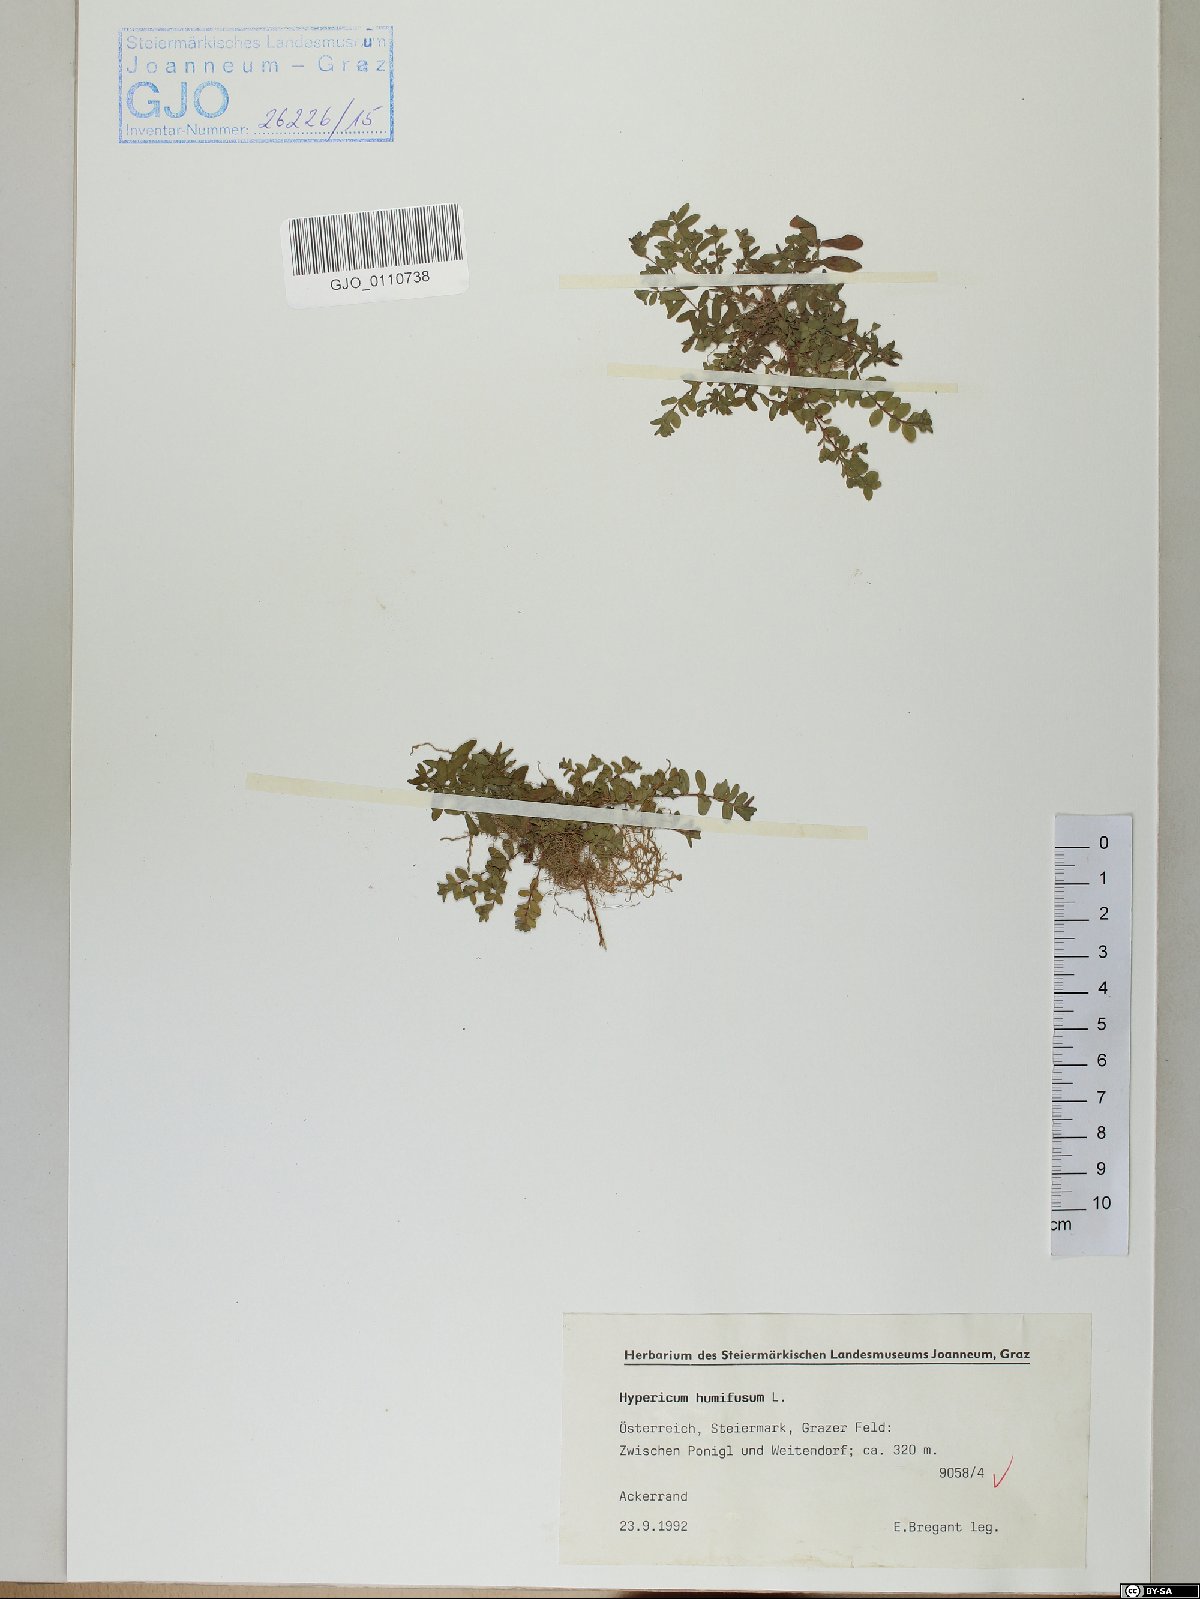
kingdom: Plantae
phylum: Tracheophyta
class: Magnoliopsida
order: Malpighiales
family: Hypericaceae
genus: Hypericum
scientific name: Hypericum humifusum
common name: Trailing st. john's-wort
